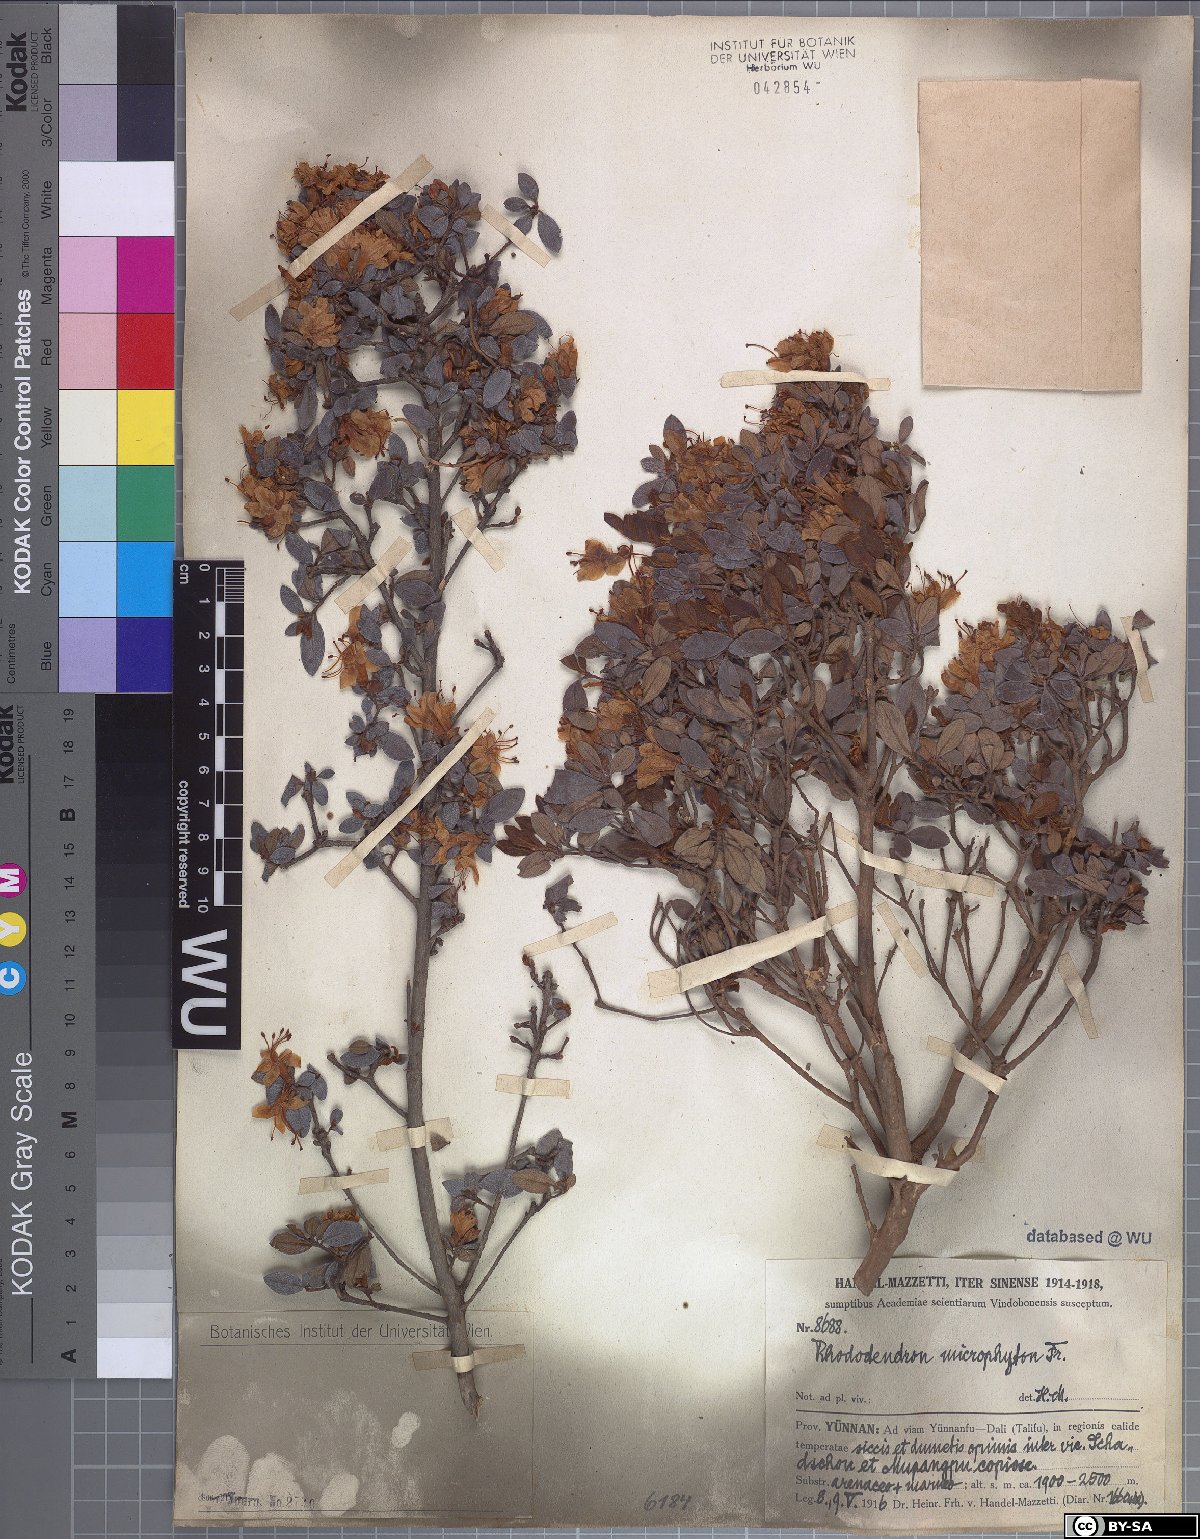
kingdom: Plantae
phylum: Tracheophyta
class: Magnoliopsida
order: Ericales
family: Ericaceae
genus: Rhododendron
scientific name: Rhododendron microphyton
